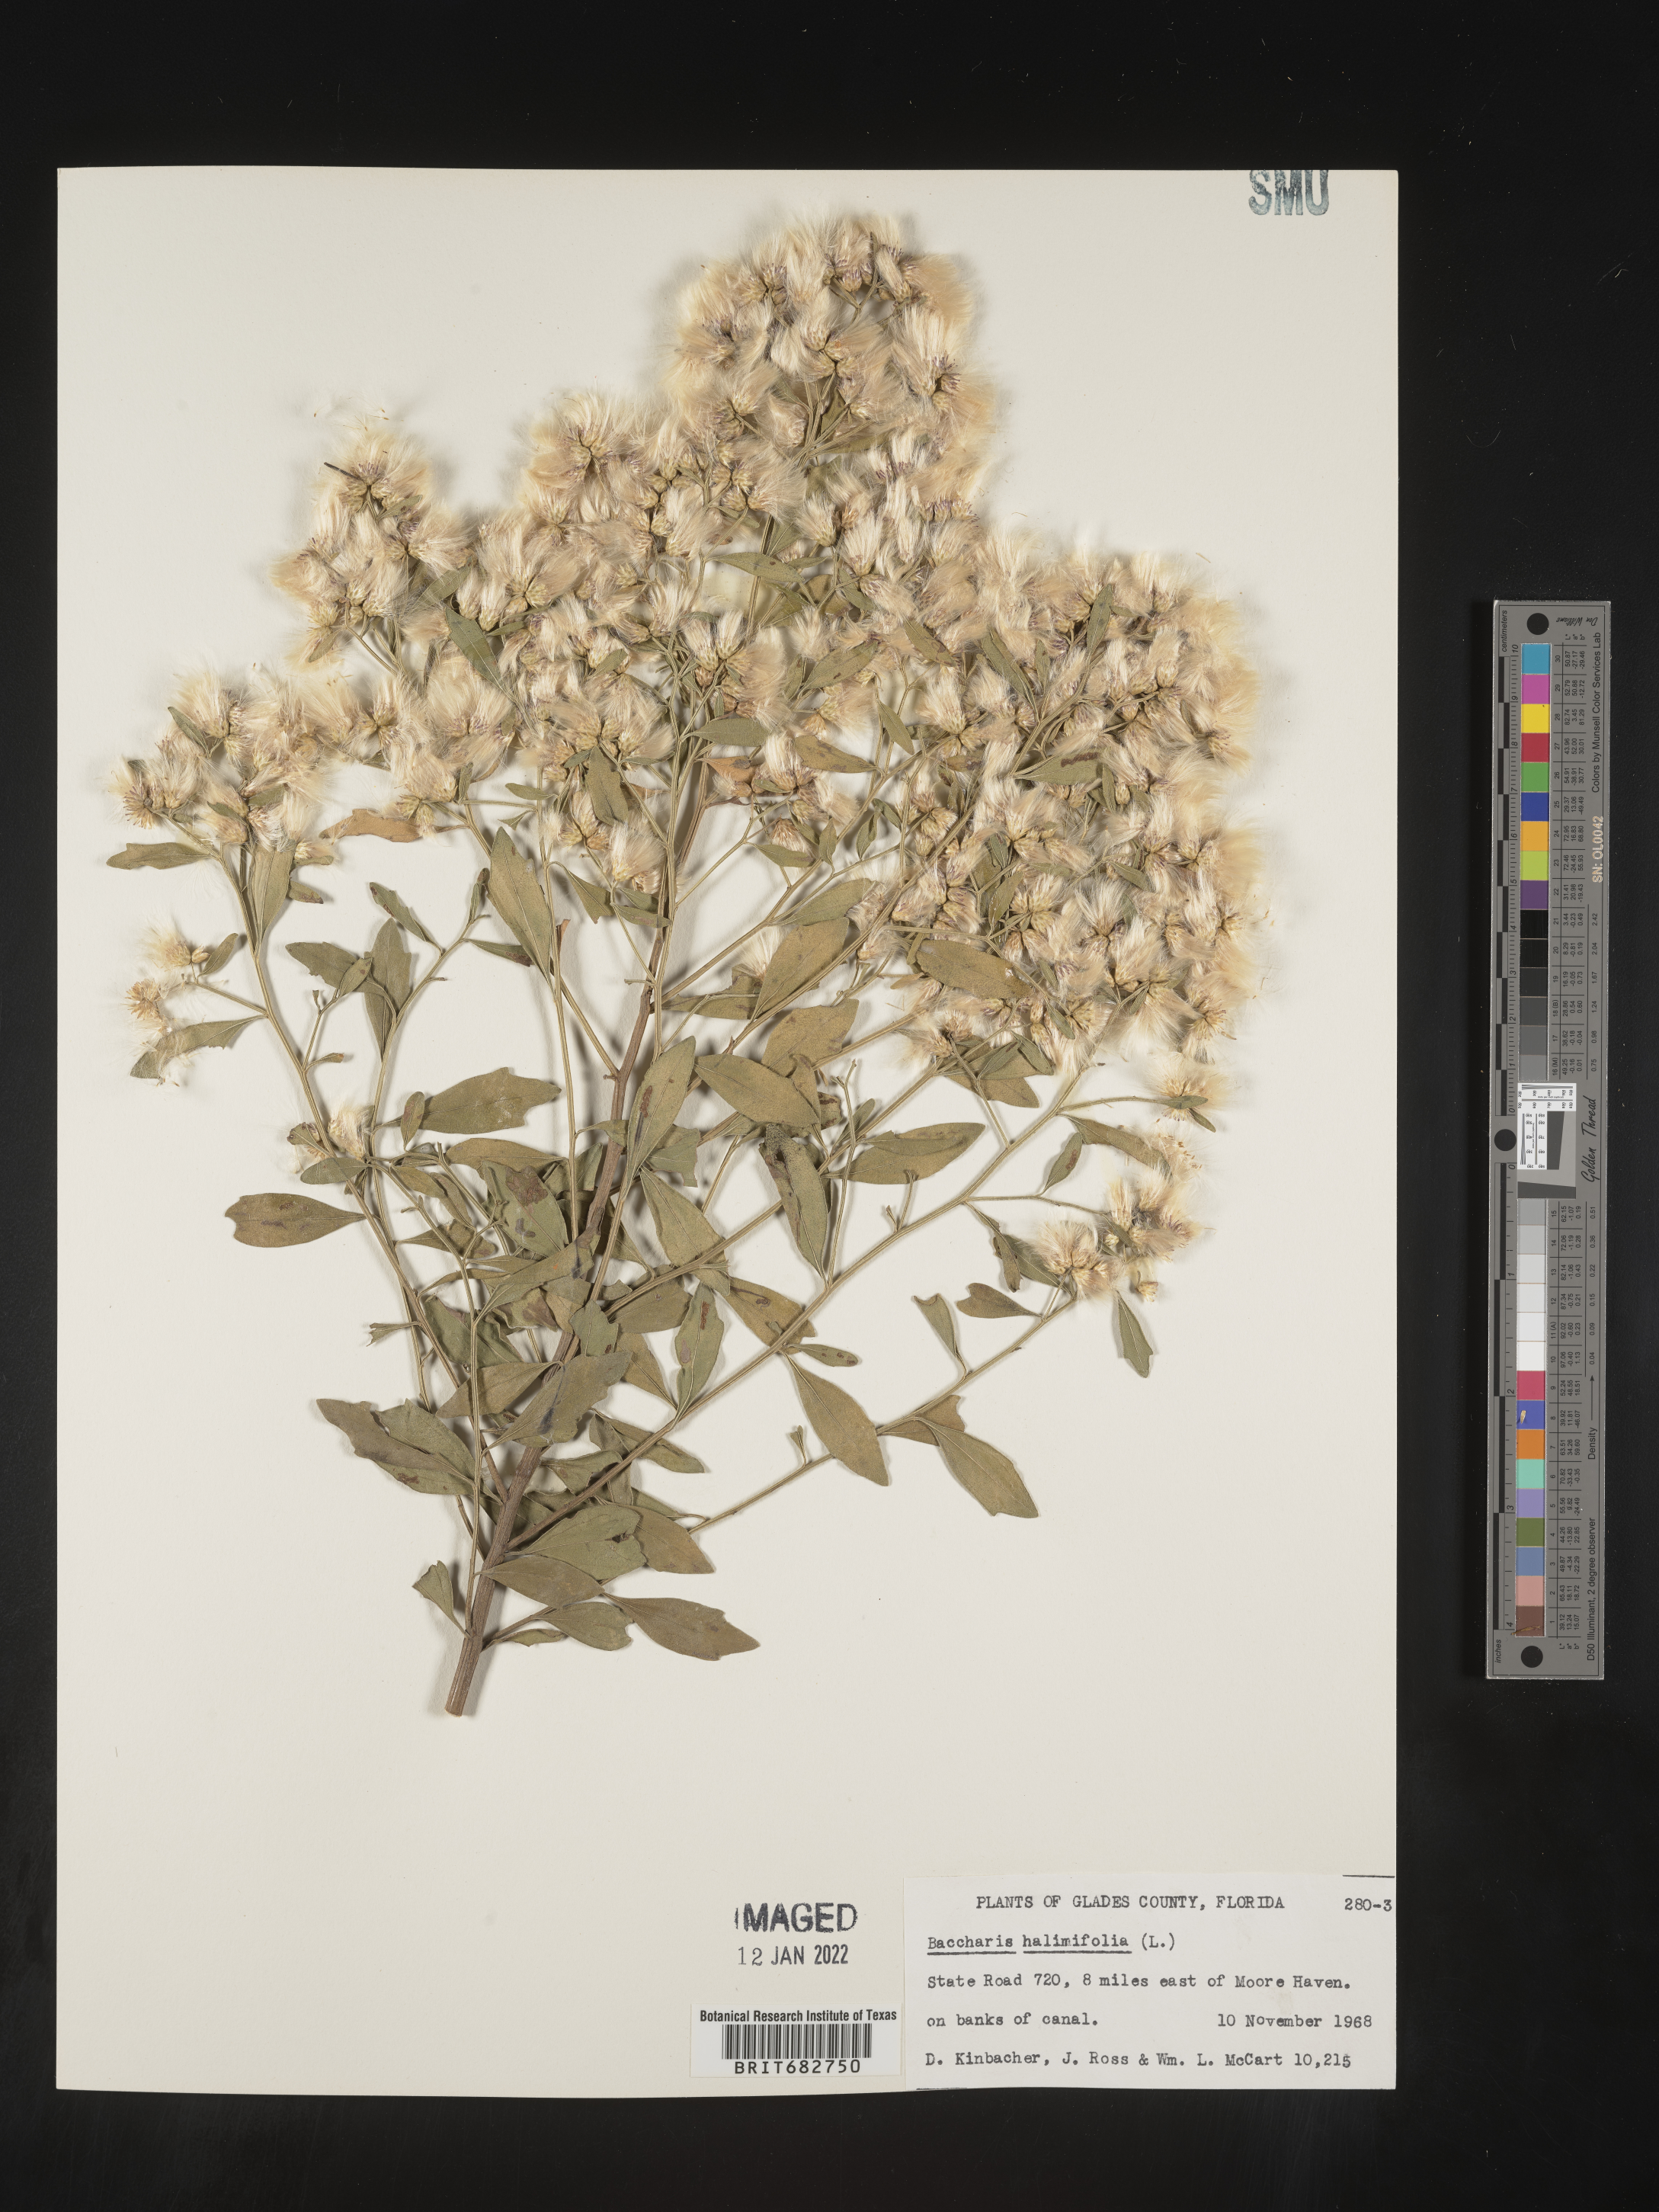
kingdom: Plantae
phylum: Tracheophyta
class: Magnoliopsida
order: Asterales
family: Asteraceae
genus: Nidorella
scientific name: Nidorella ivifolia
